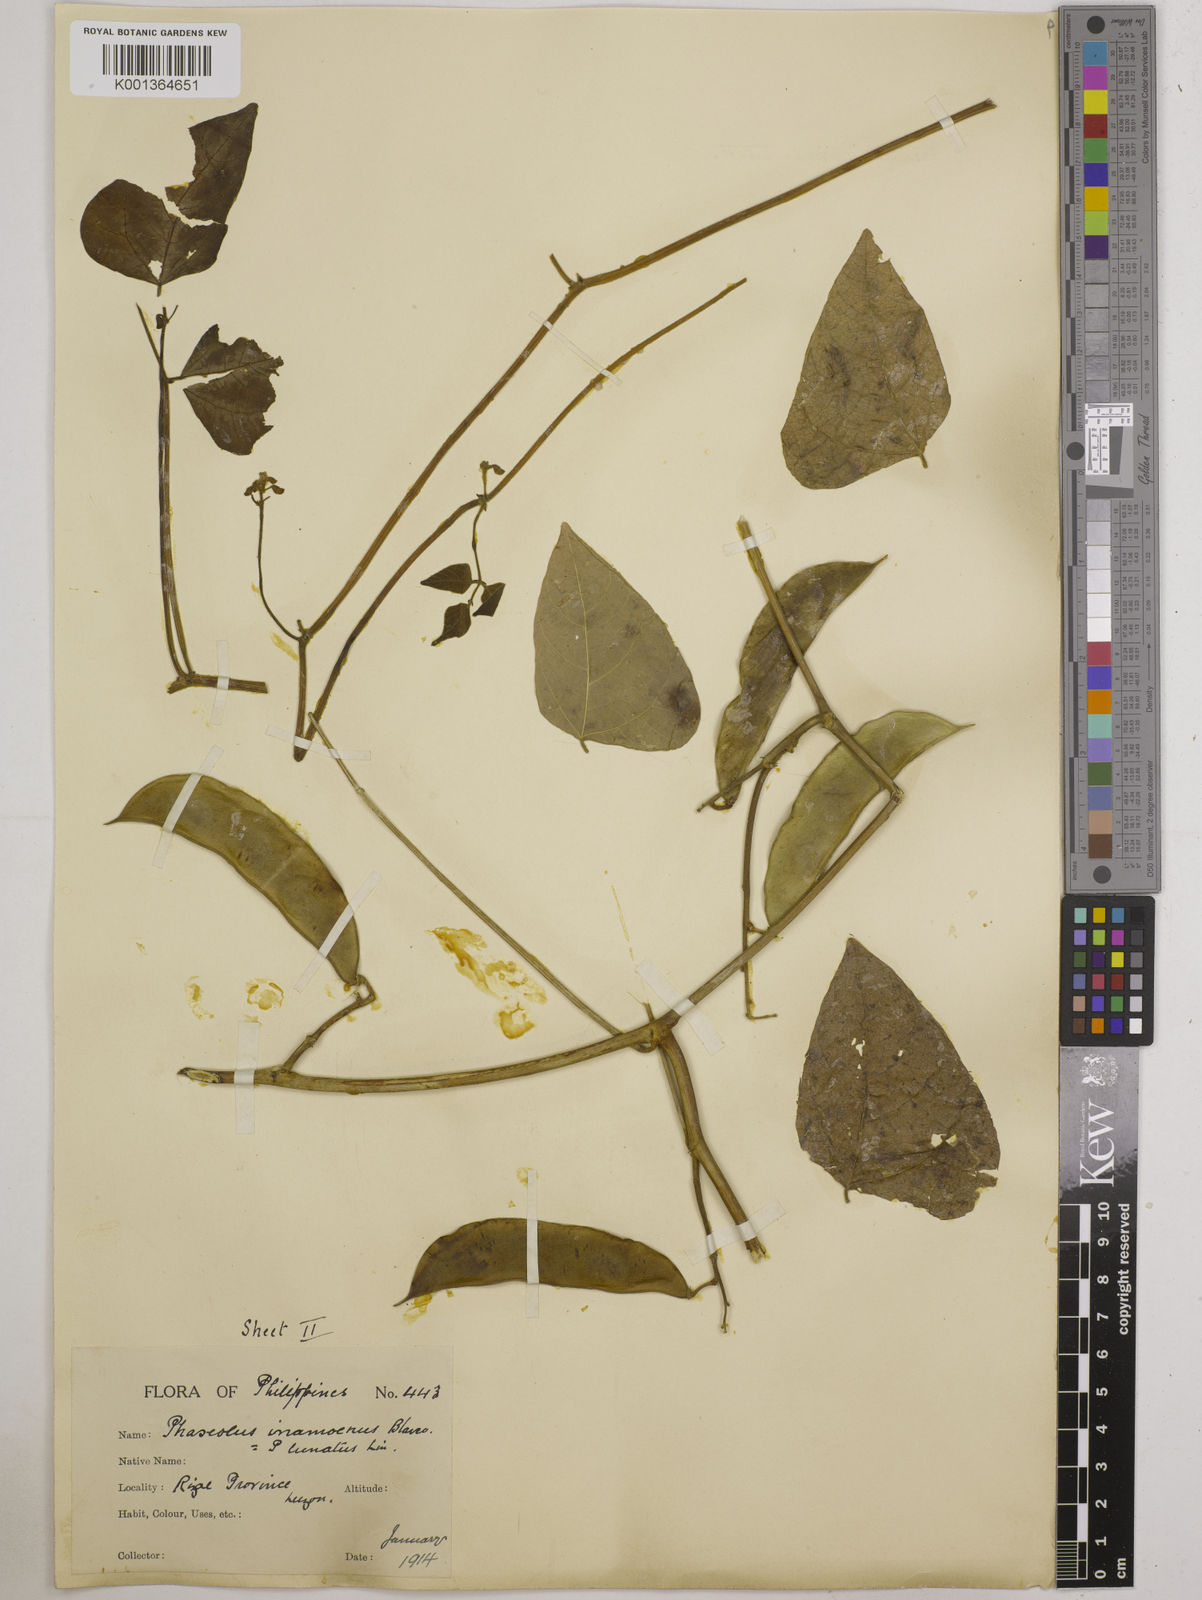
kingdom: Plantae
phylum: Tracheophyta
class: Magnoliopsida
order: Fabales
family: Fabaceae
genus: Phaseolus
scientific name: Phaseolus lunatus
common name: Sieva bean
